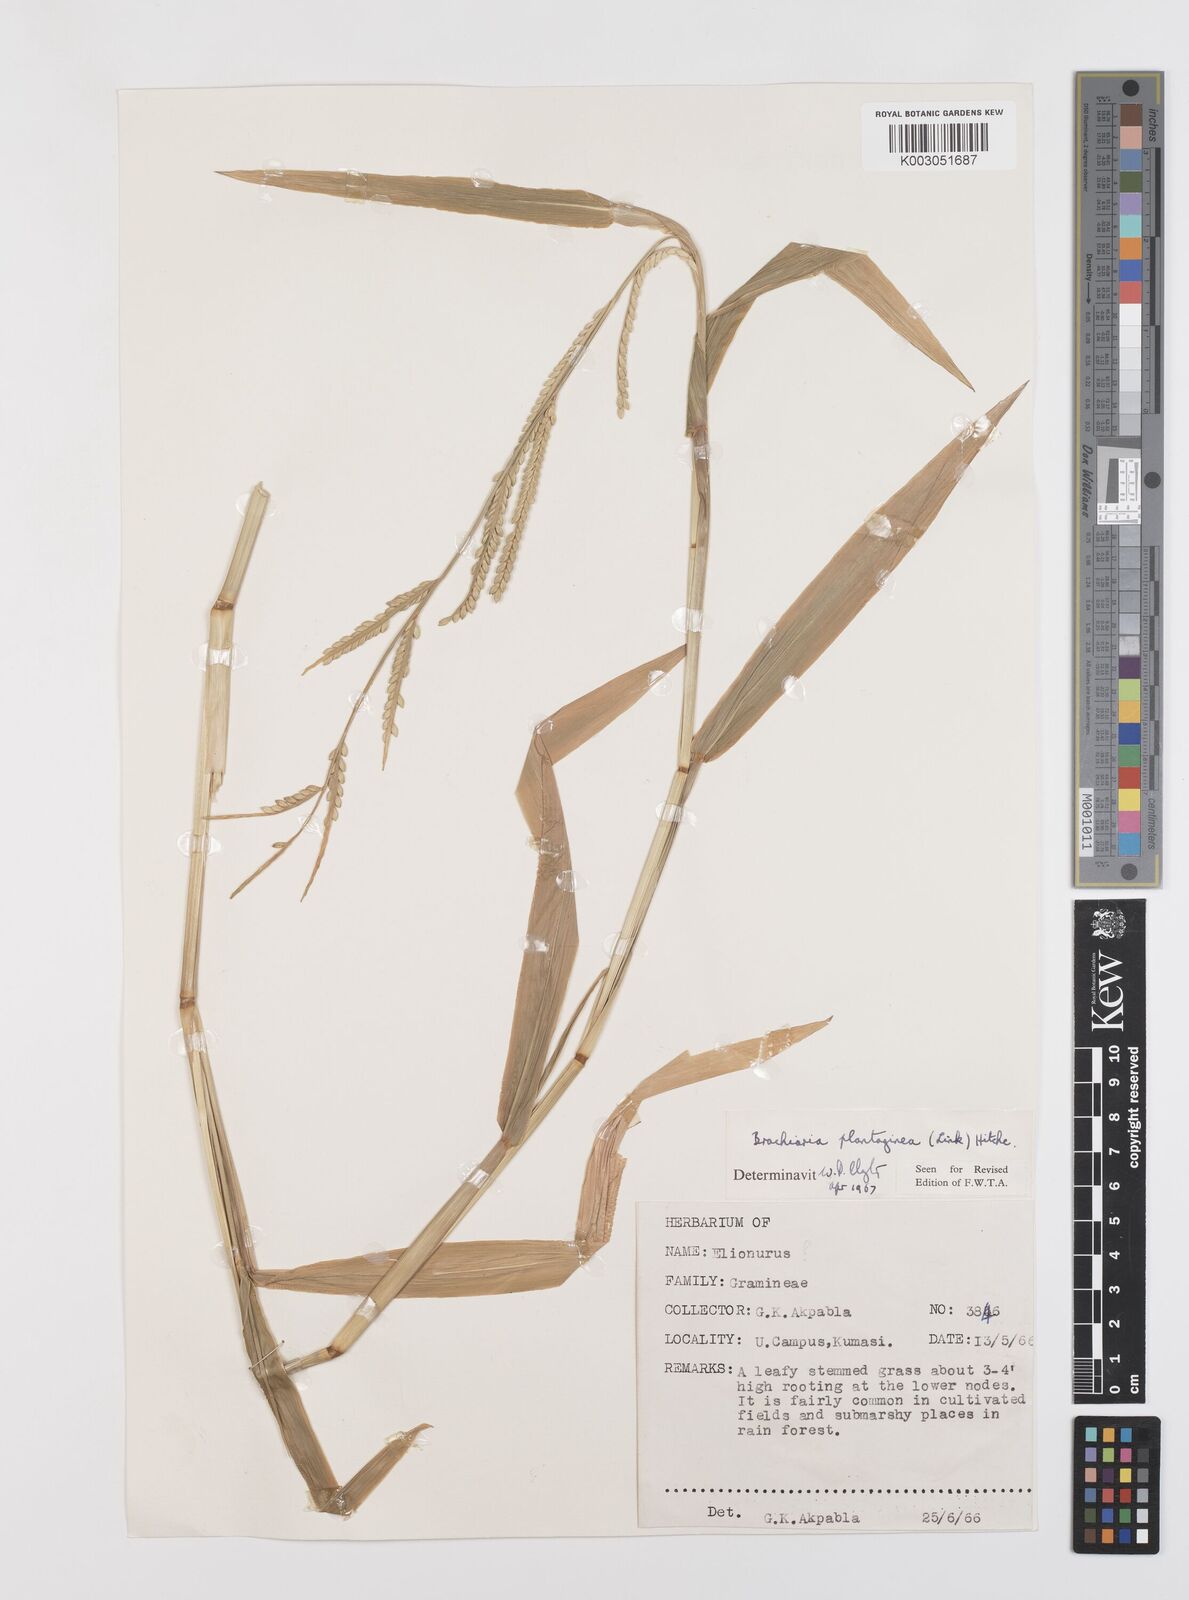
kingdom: Plantae
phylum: Tracheophyta
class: Liliopsida
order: Poales
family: Poaceae
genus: Urochloa
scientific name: Urochloa plantaginea
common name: Plantain signalgrass
